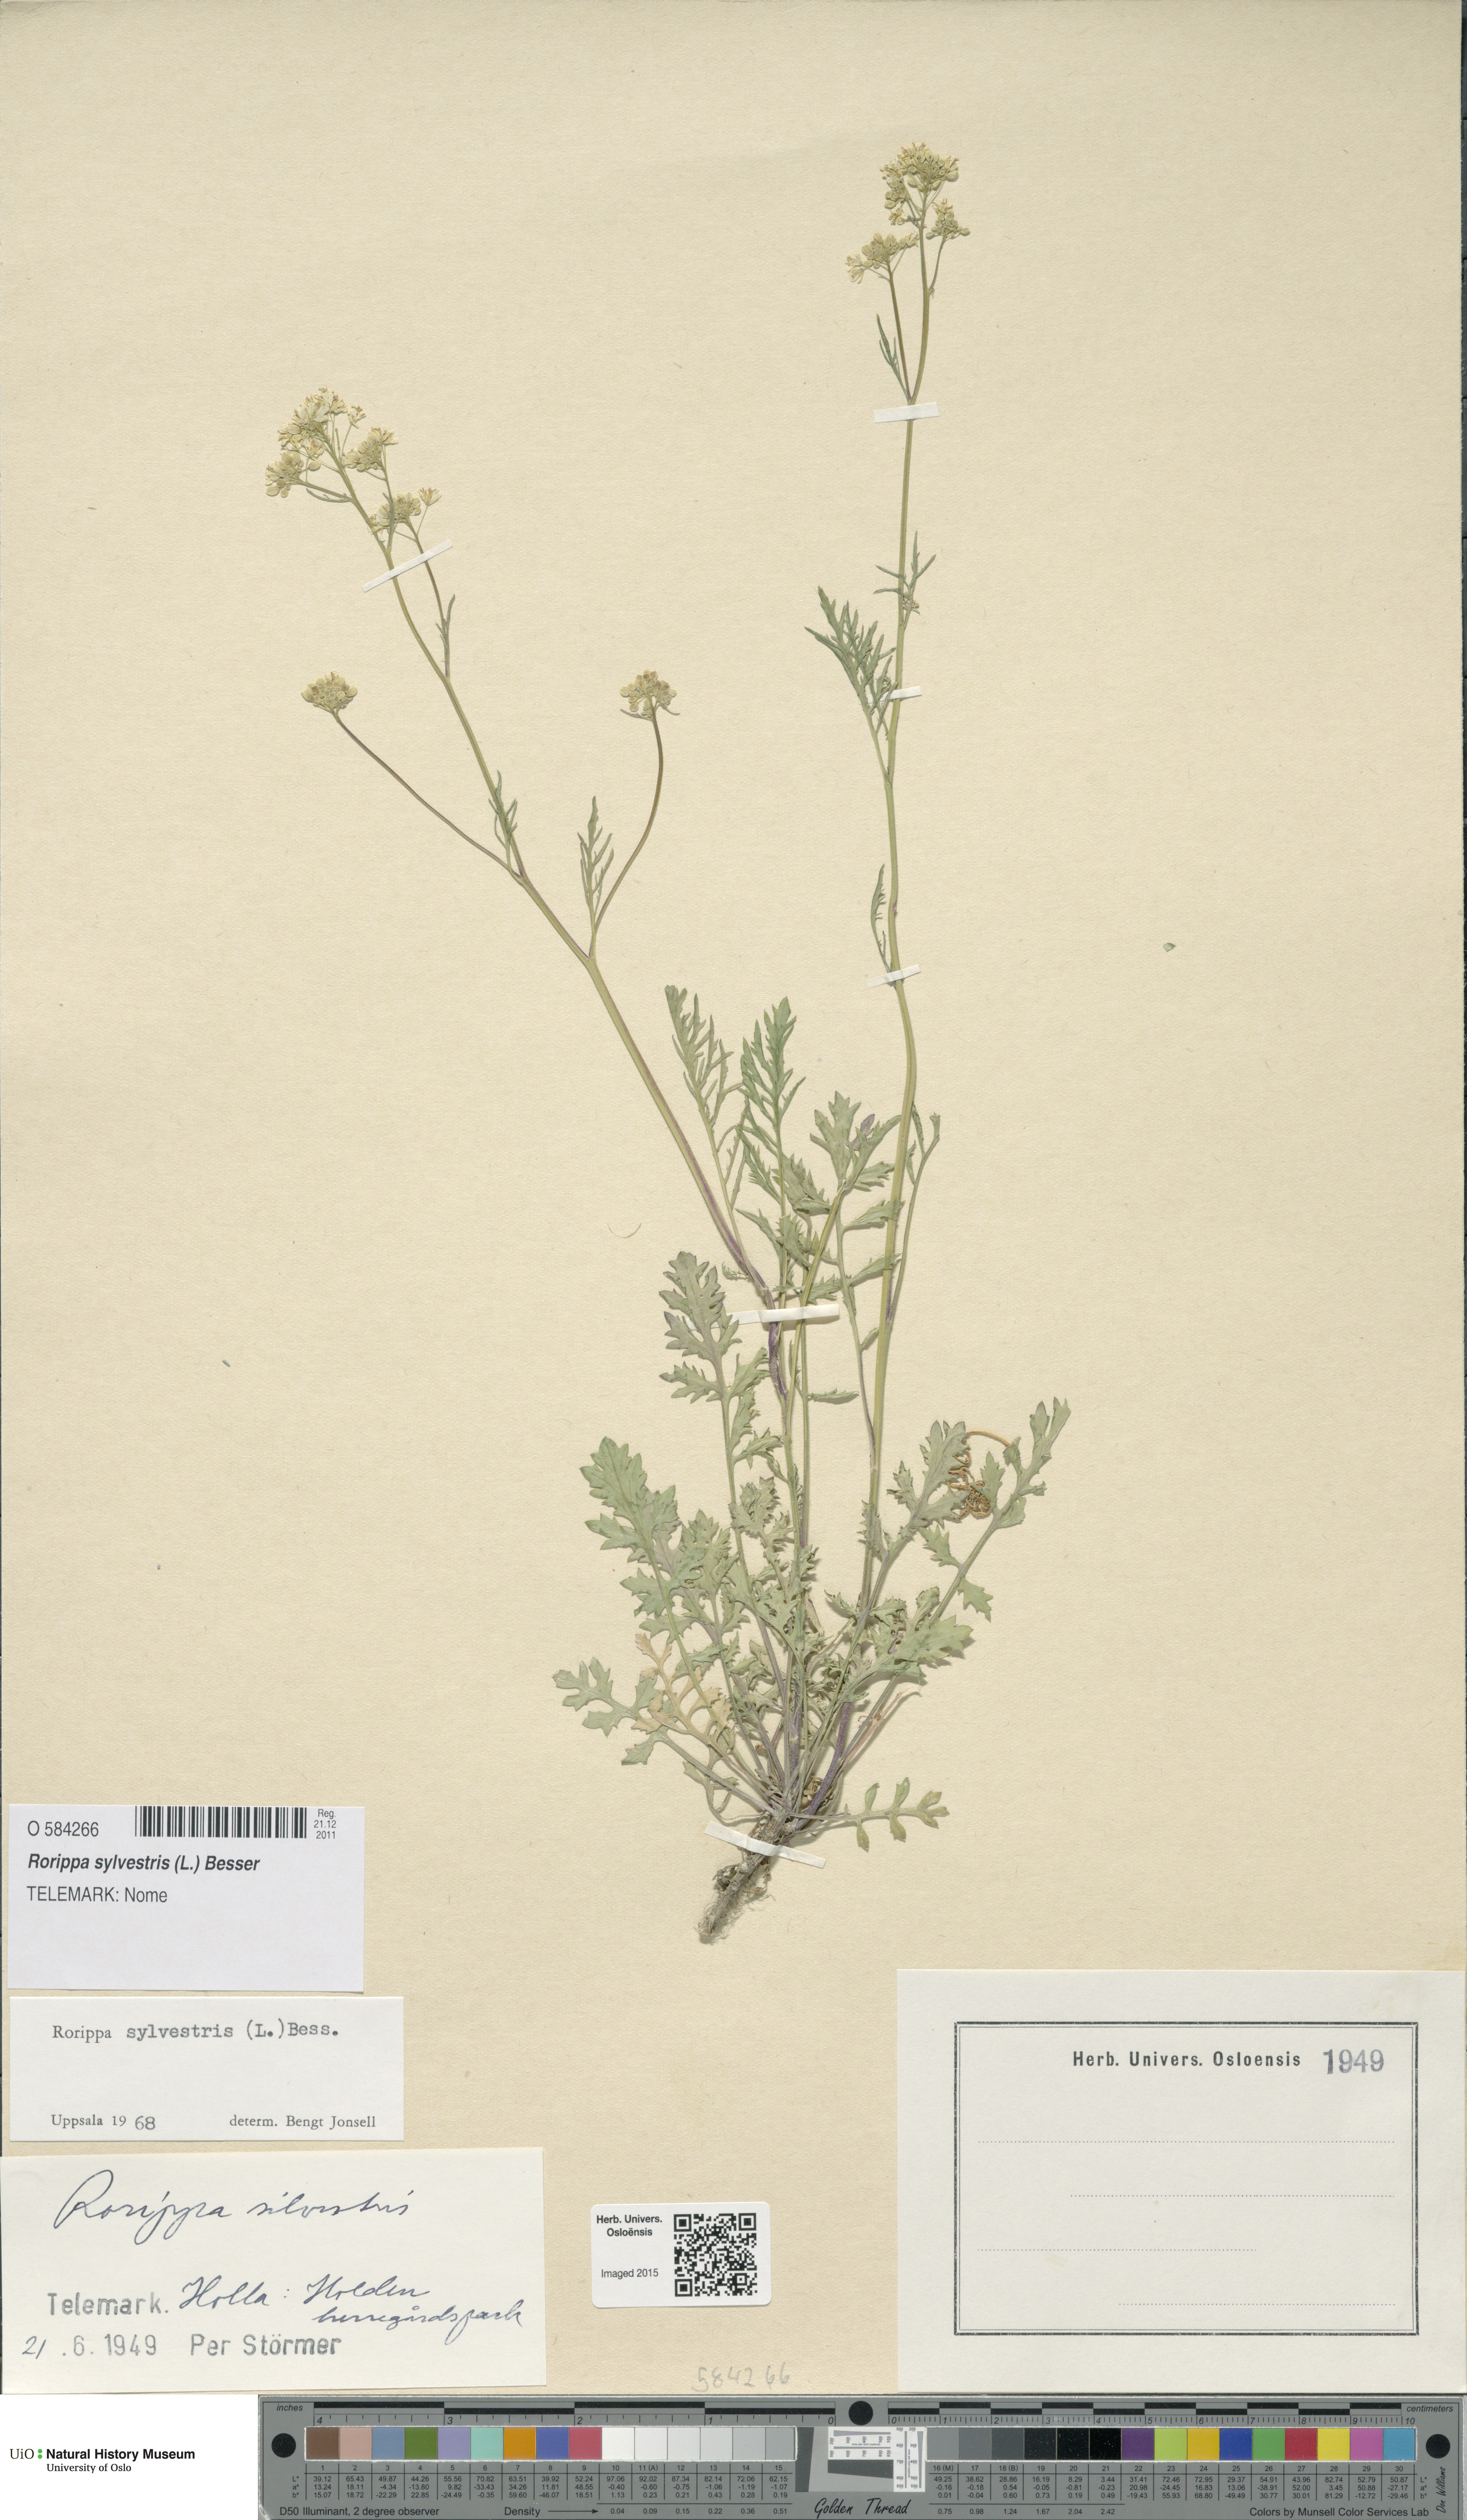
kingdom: Plantae
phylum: Tracheophyta
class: Magnoliopsida
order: Brassicales
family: Brassicaceae
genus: Rorippa
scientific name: Rorippa sylvestris
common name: Creeping yellowcress
